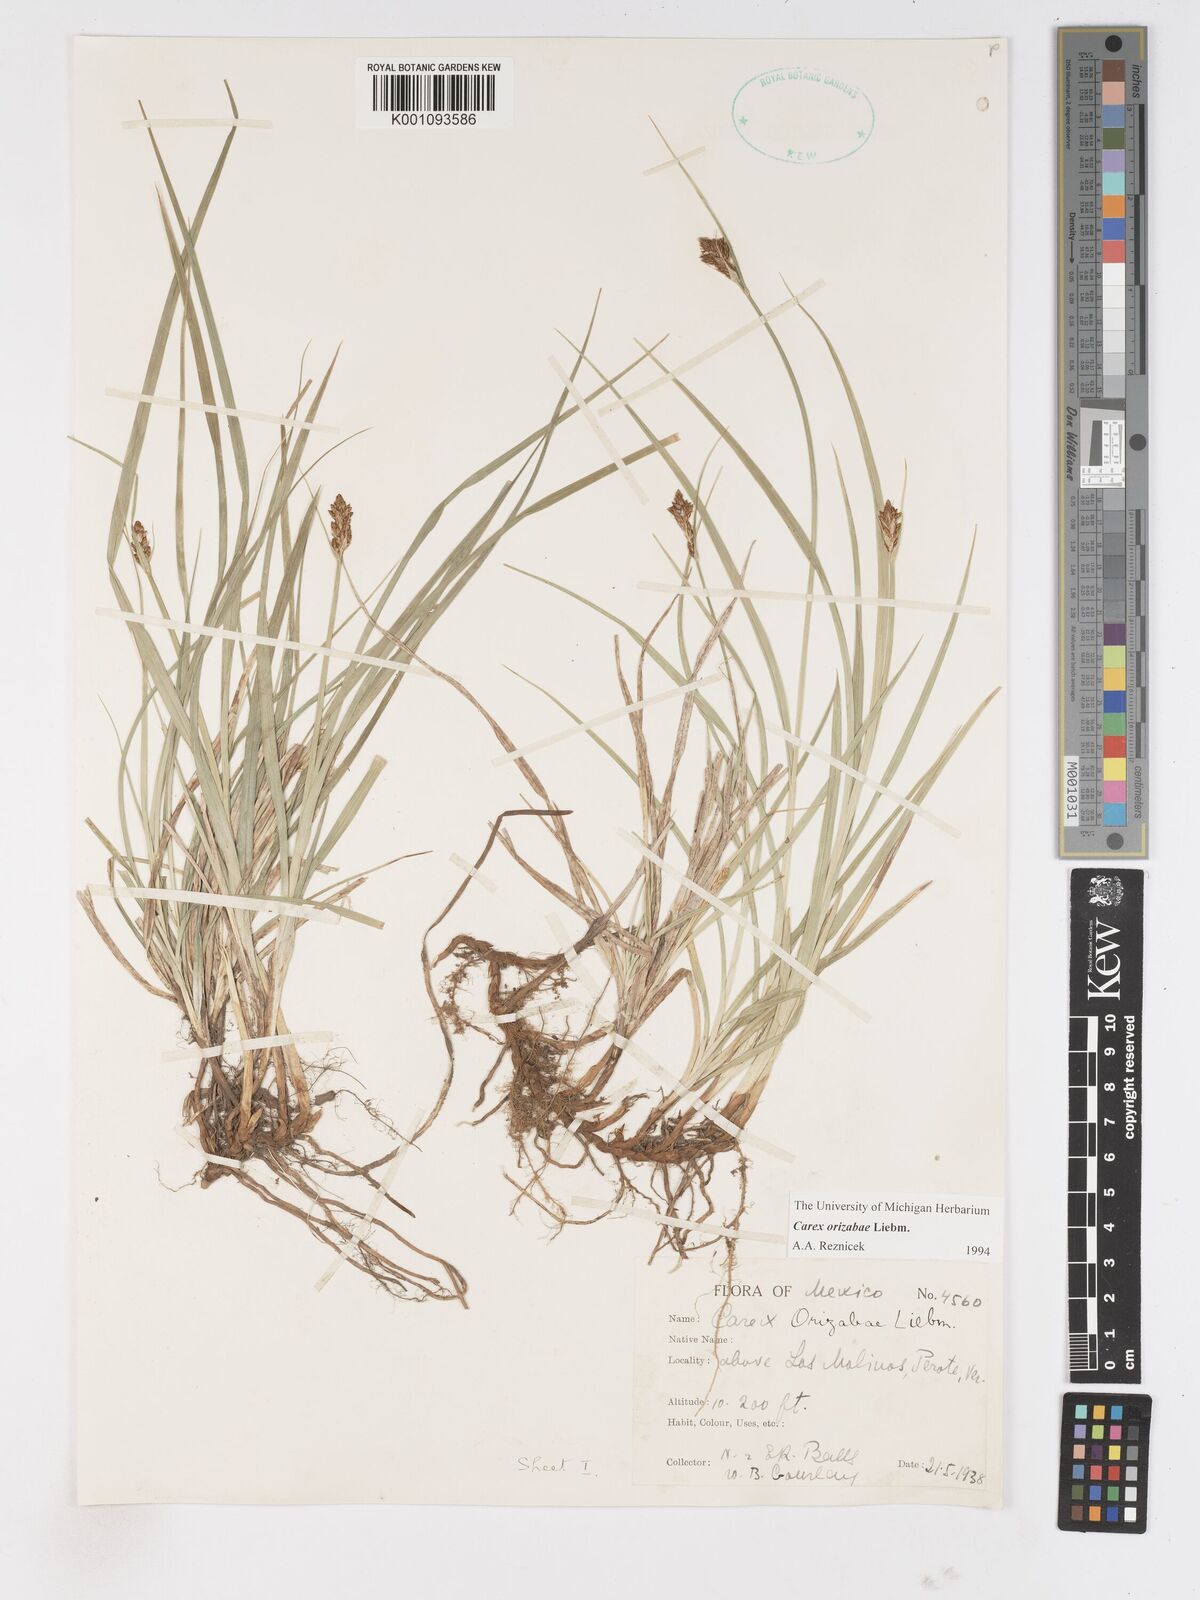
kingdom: Plantae
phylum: Tracheophyta
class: Liliopsida
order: Poales
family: Cyperaceae
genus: Carex
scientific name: Carex orizabae
